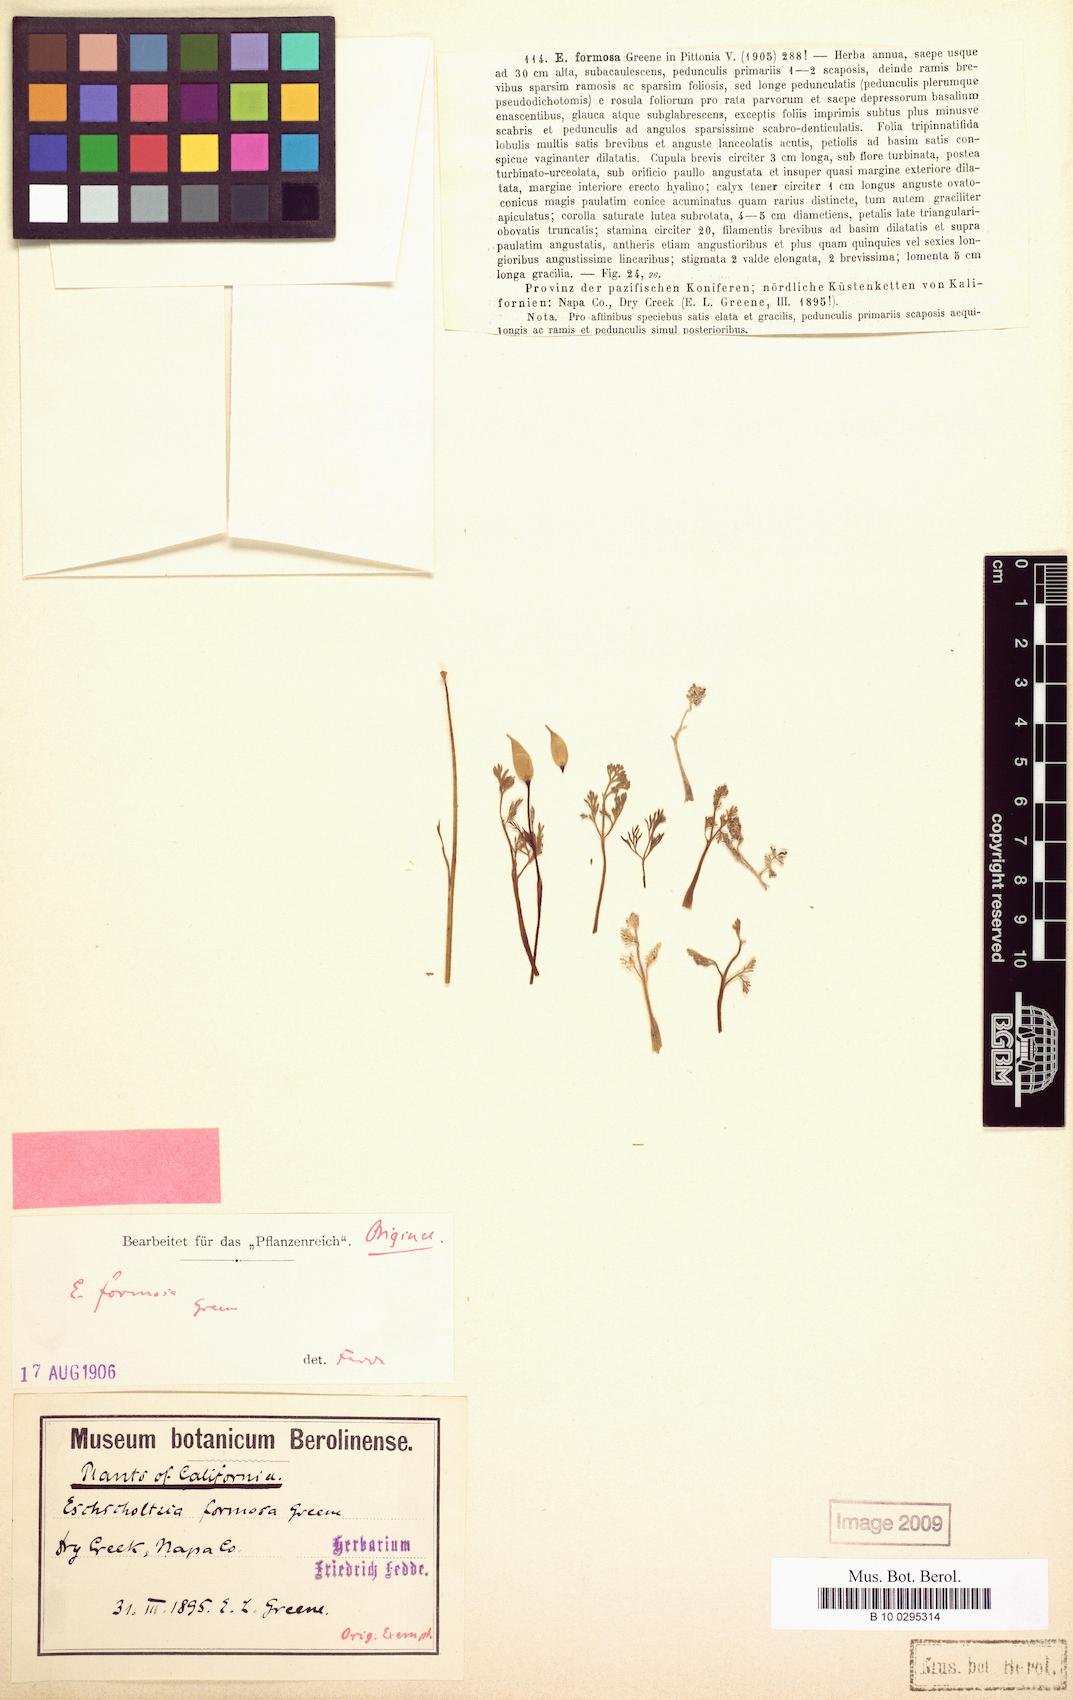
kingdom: Plantae
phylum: Tracheophyta
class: Magnoliopsida
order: Ranunculales
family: Papaveraceae
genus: Eschscholzia
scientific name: Eschscholzia caespitosa
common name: Tufted california-poppy
